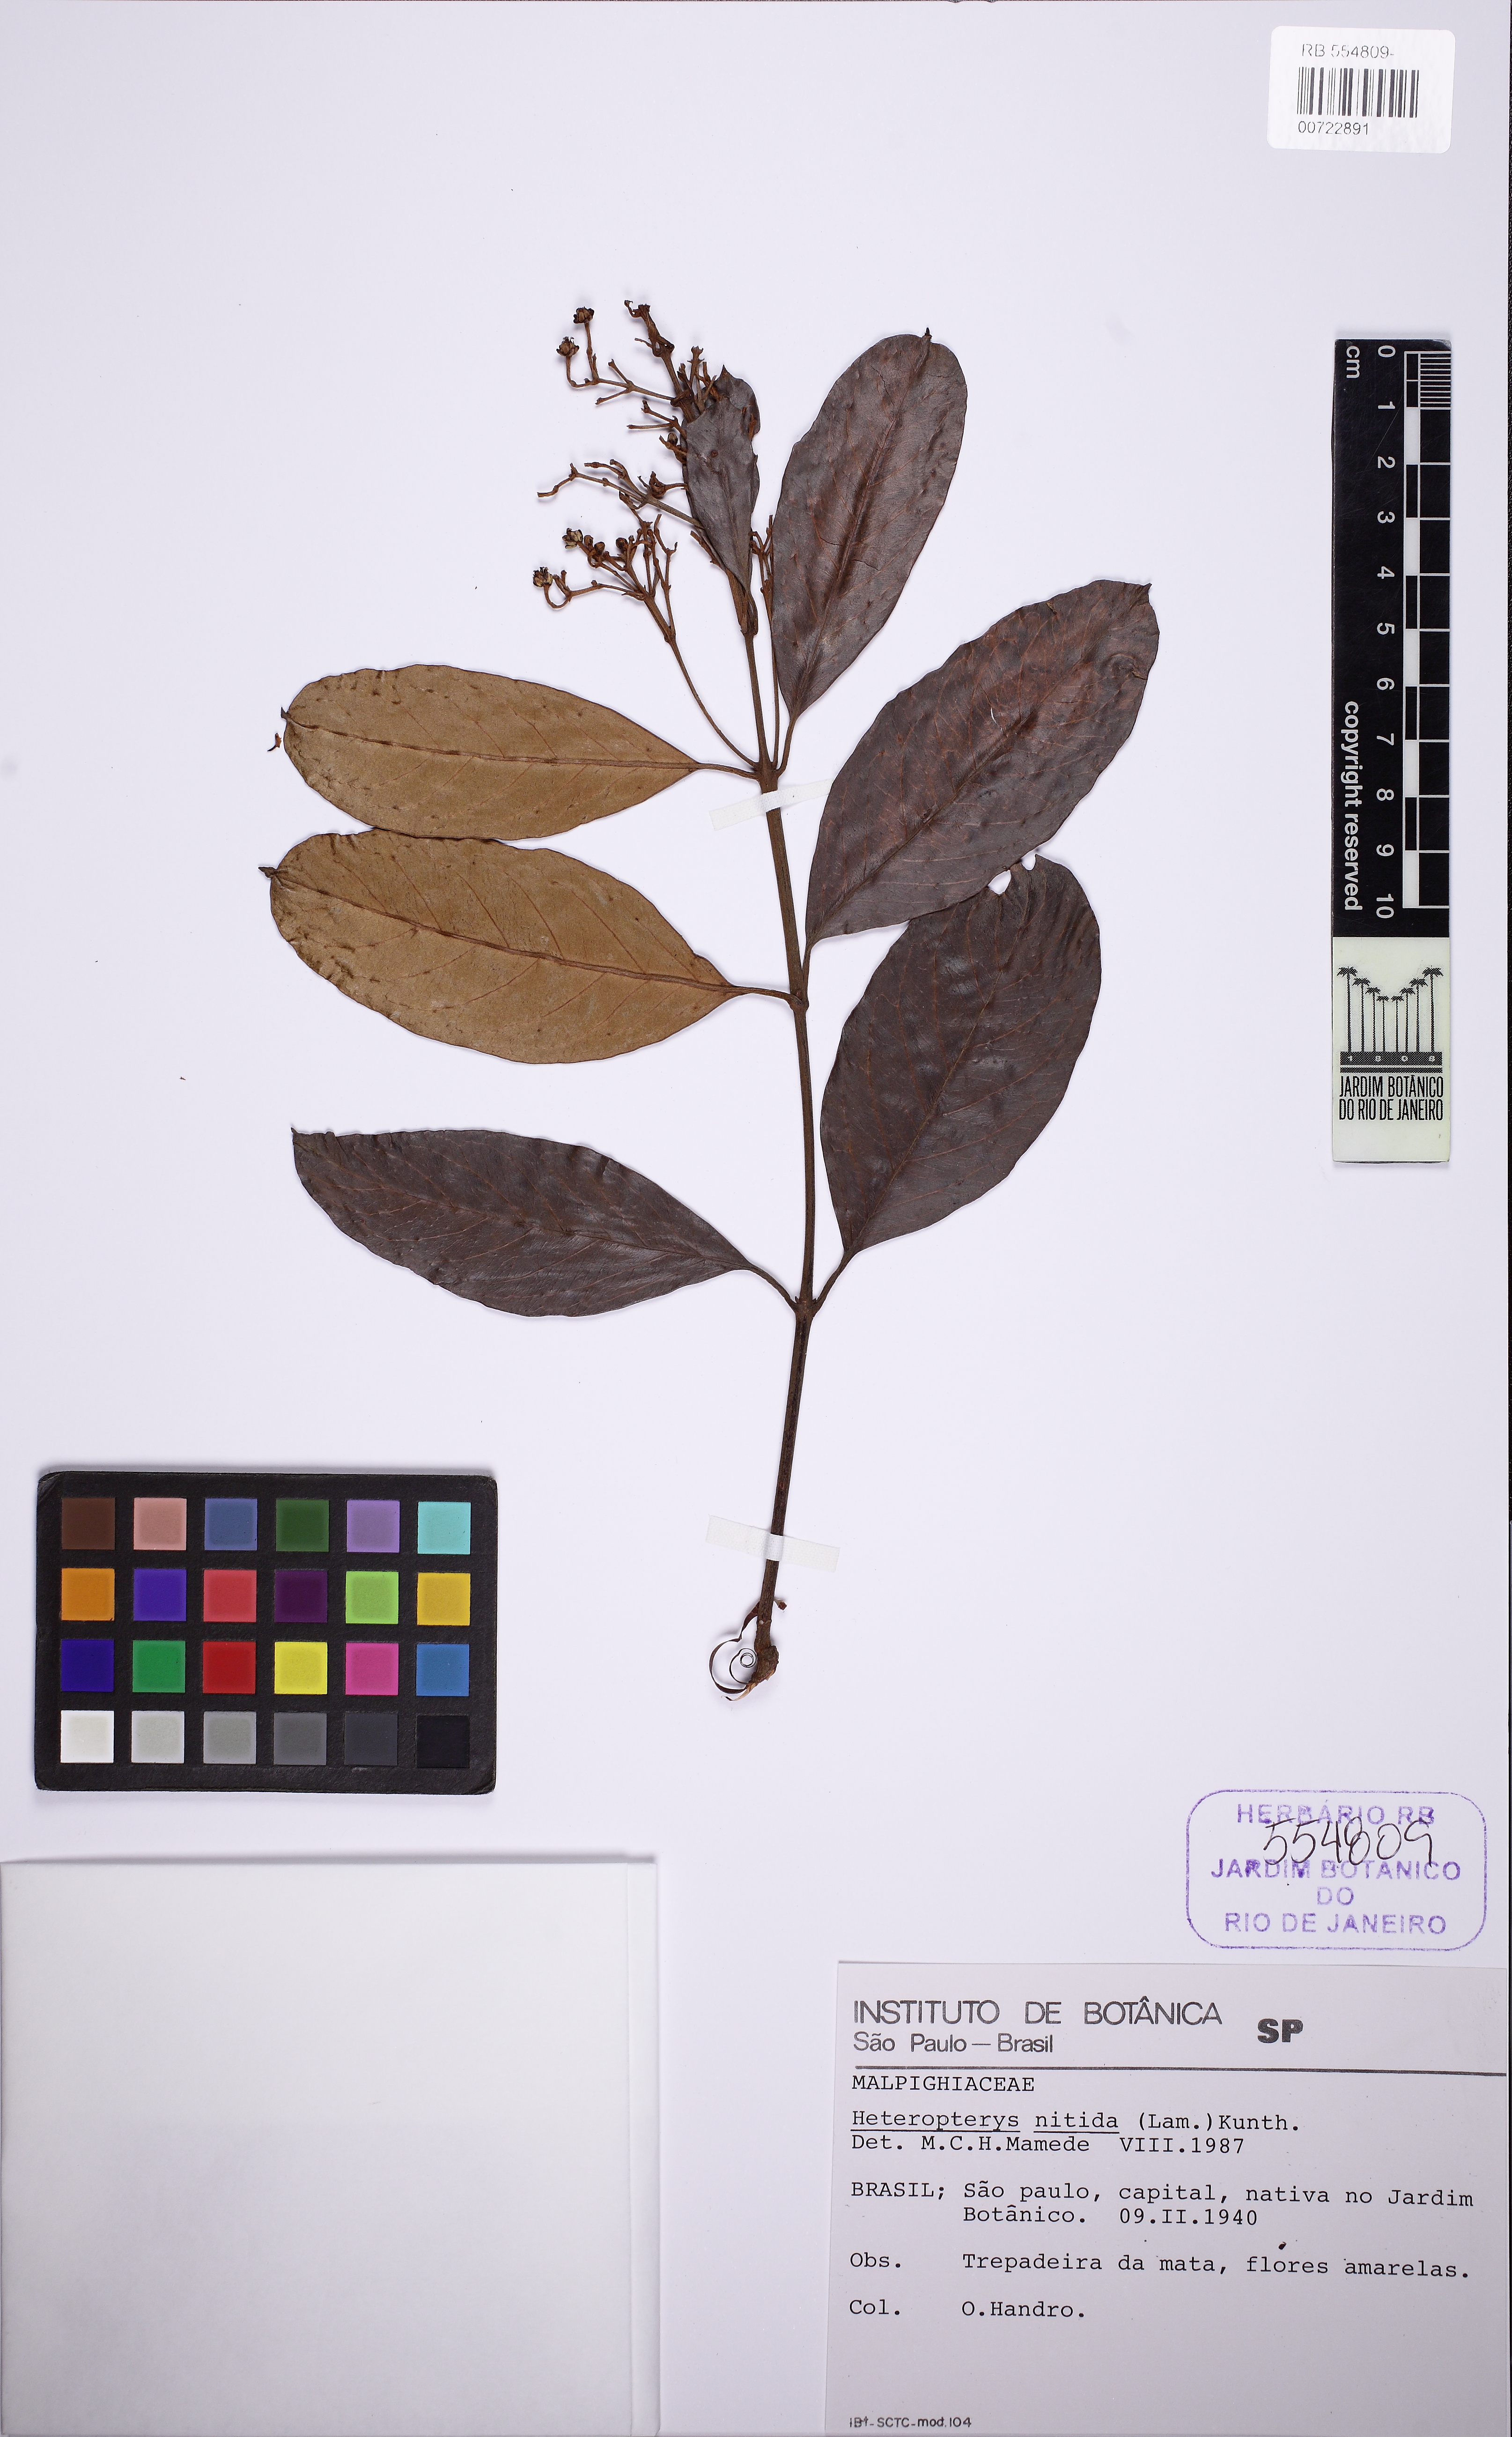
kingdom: Plantae
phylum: Tracheophyta
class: Magnoliopsida
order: Malpighiales
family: Malpighiaceae
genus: Heteropterys
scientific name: Heteropterys nitida
